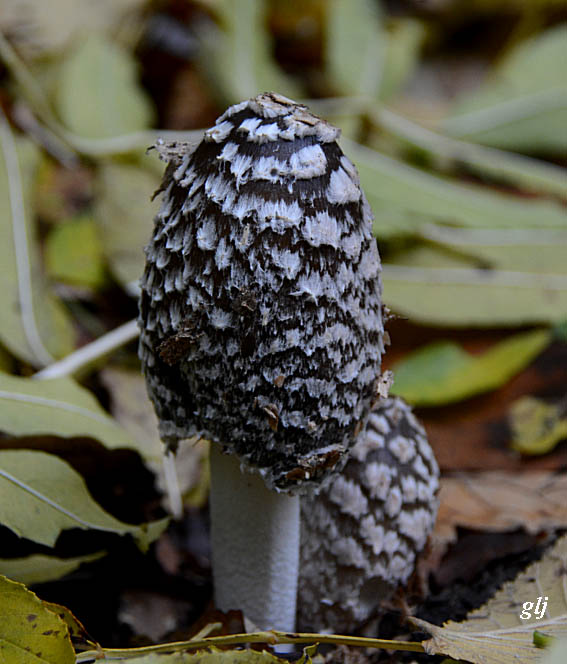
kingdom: Fungi
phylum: Basidiomycota
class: Agaricomycetes
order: Agaricales
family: Psathyrellaceae
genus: Coprinopsis
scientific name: Coprinopsis picacea
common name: skade-blækhat
